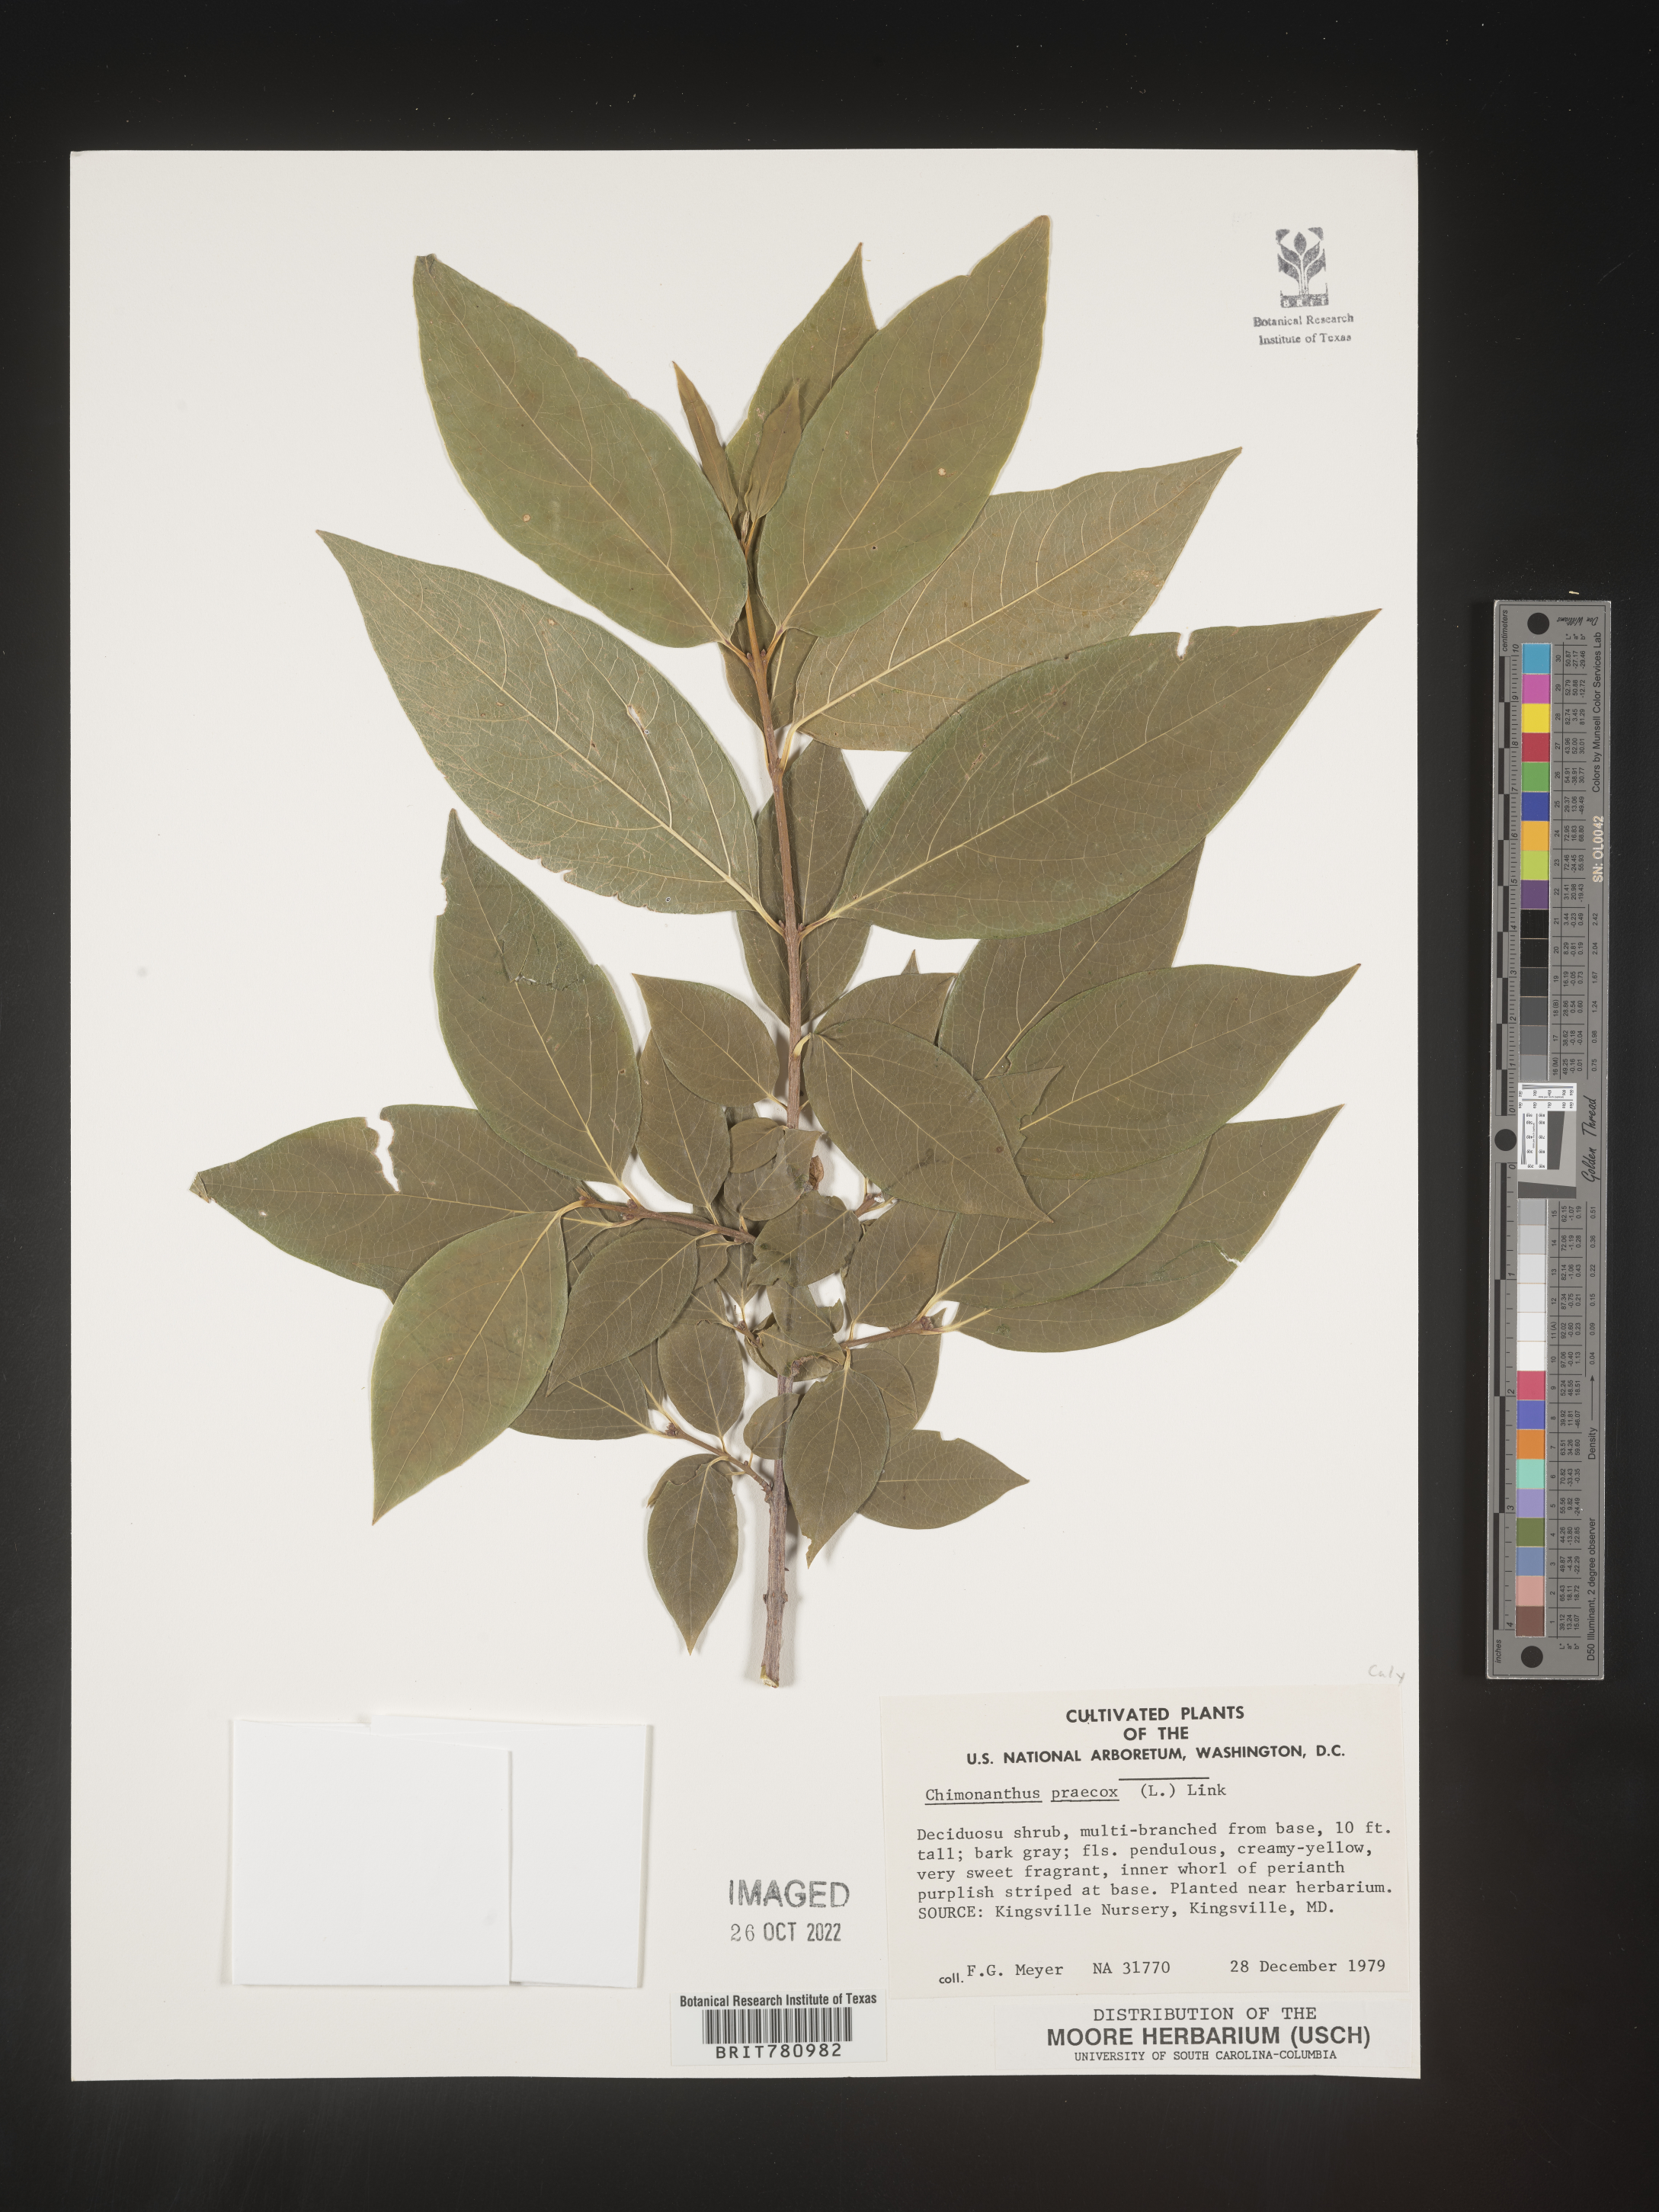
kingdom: Plantae
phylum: Tracheophyta
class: Magnoliopsida
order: Laurales
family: Calycanthaceae
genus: Chimonanthus
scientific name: Chimonanthus
